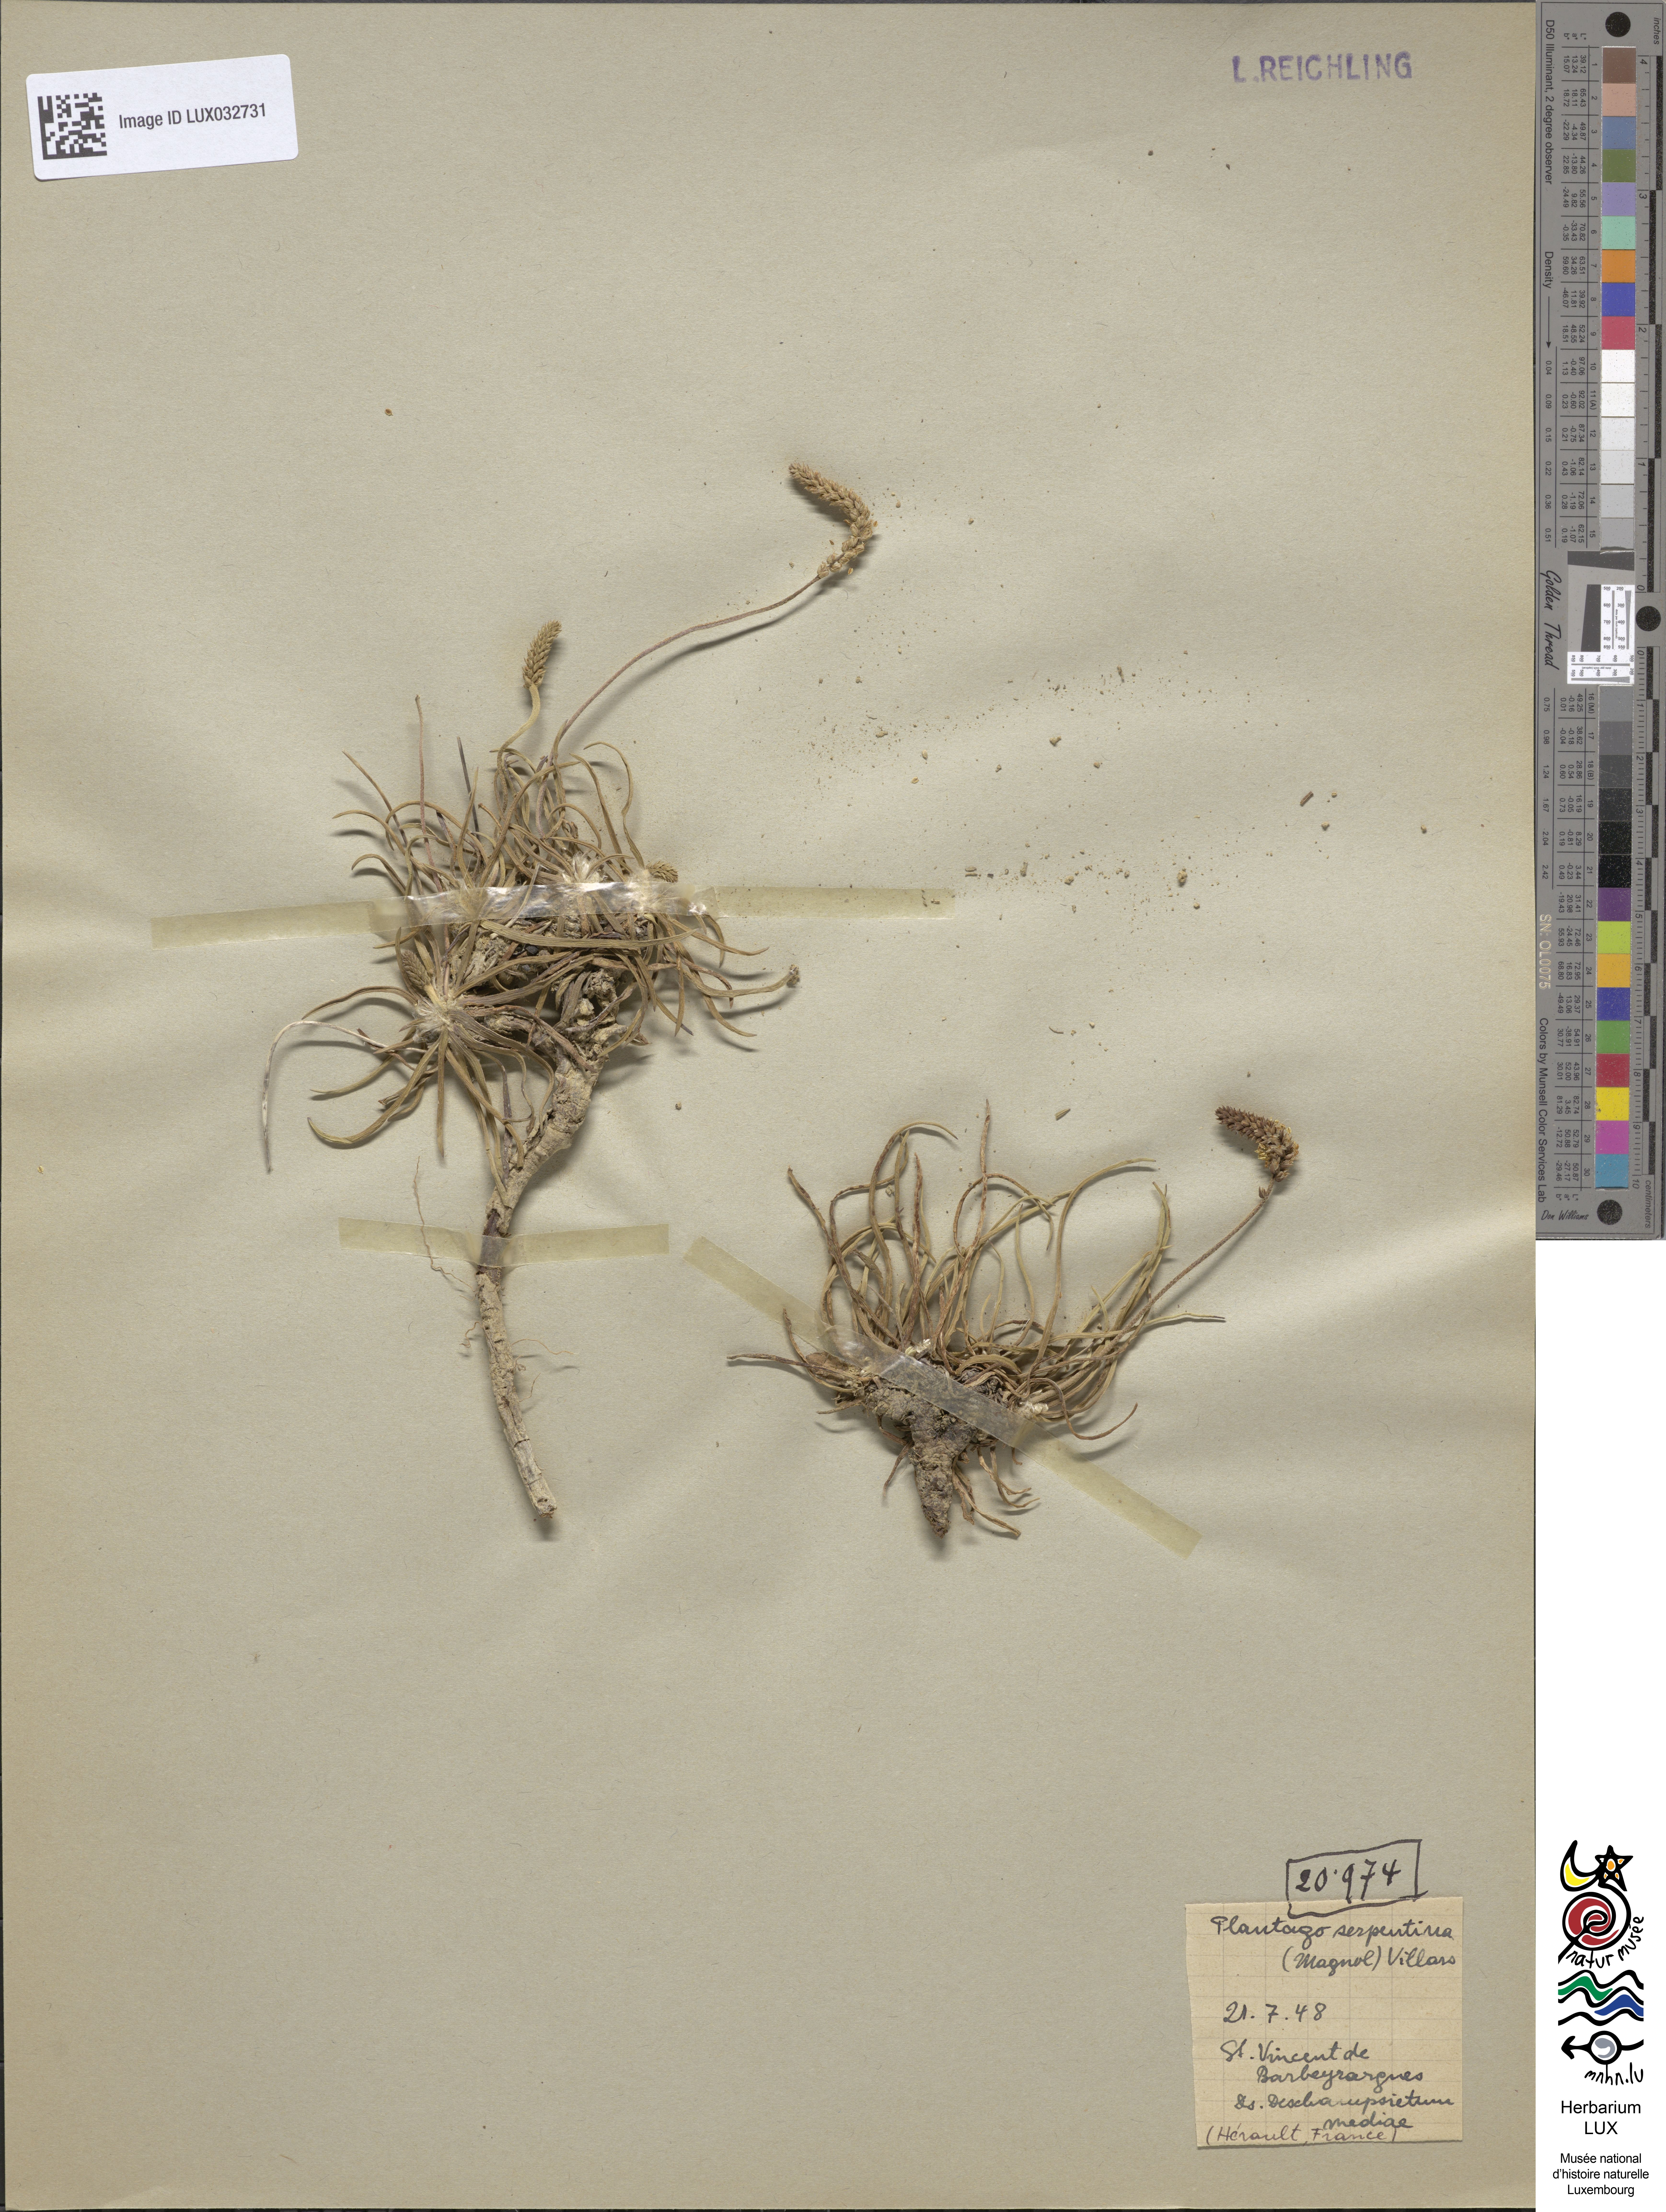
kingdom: Plantae
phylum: Tracheophyta
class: Magnoliopsida
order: Lamiales
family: Plantaginaceae
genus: Plantago
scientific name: Plantago strictissima
